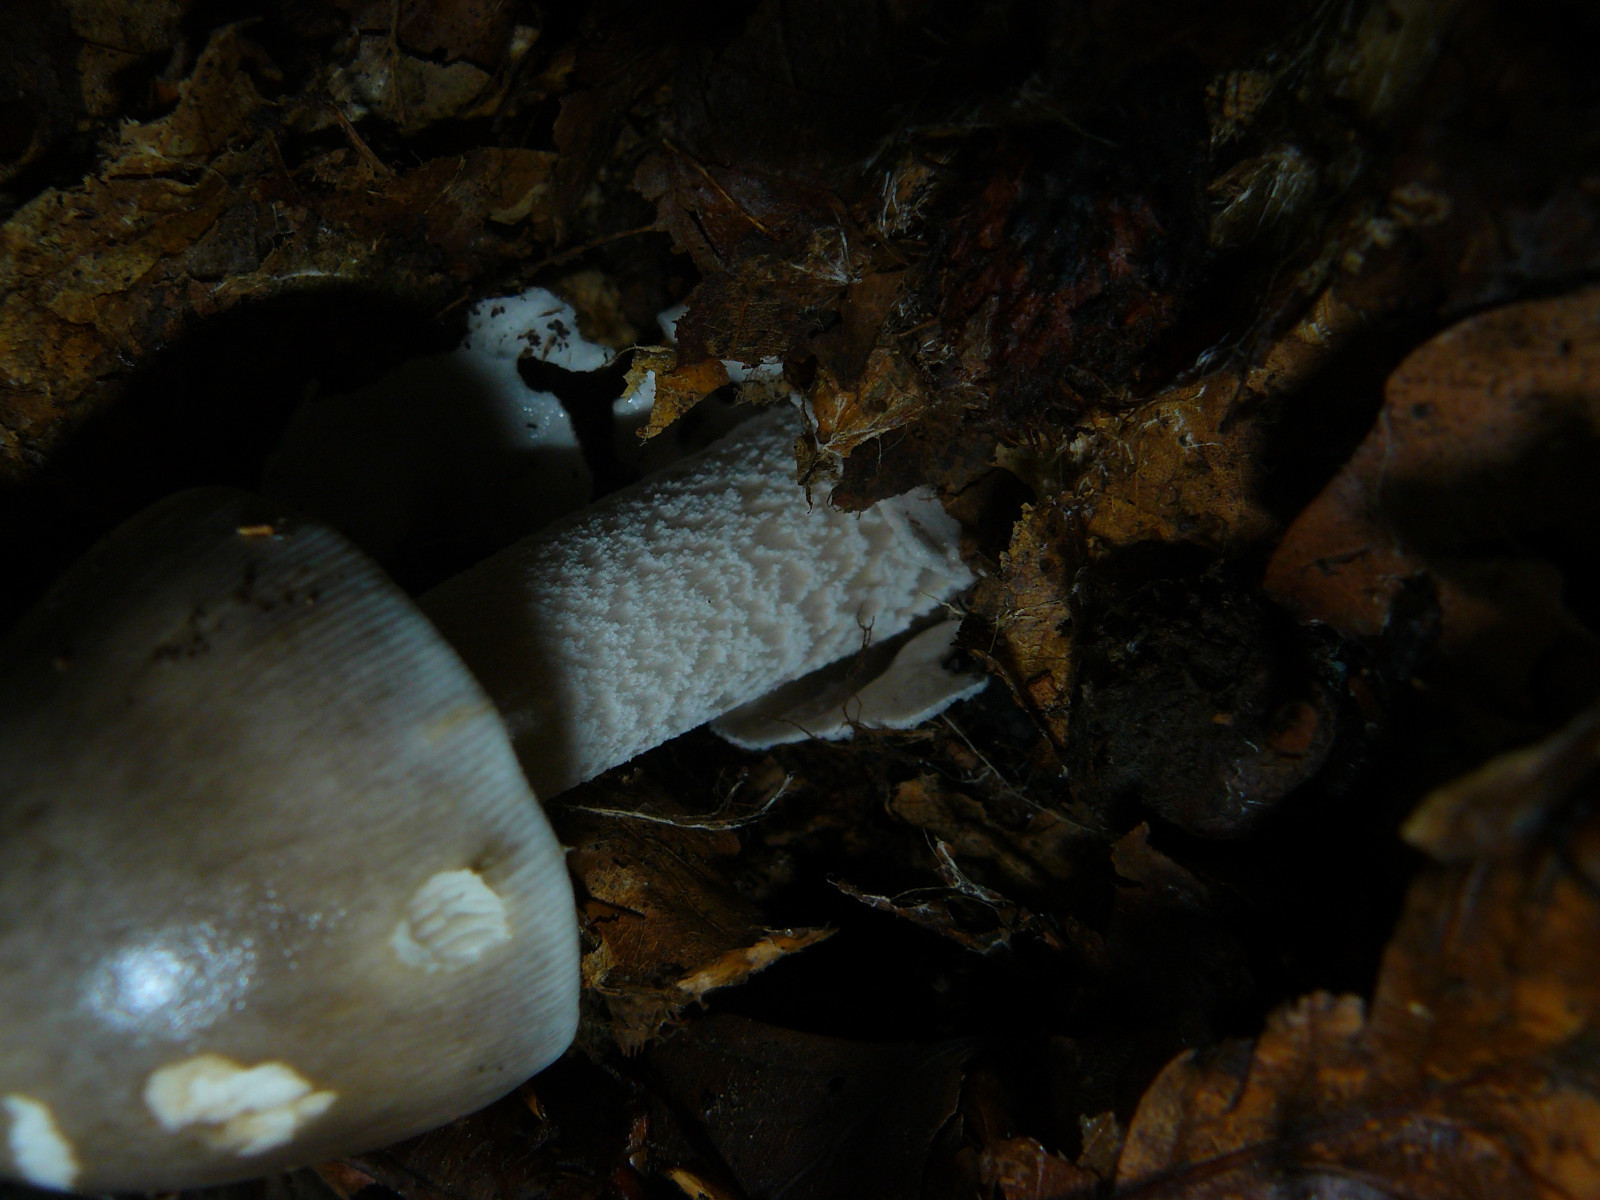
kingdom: Fungi
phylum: Basidiomycota
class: Agaricomycetes
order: Agaricales
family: Amanitaceae
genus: Amanita
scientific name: Amanita fulva
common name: brun kam-fluesvamp
